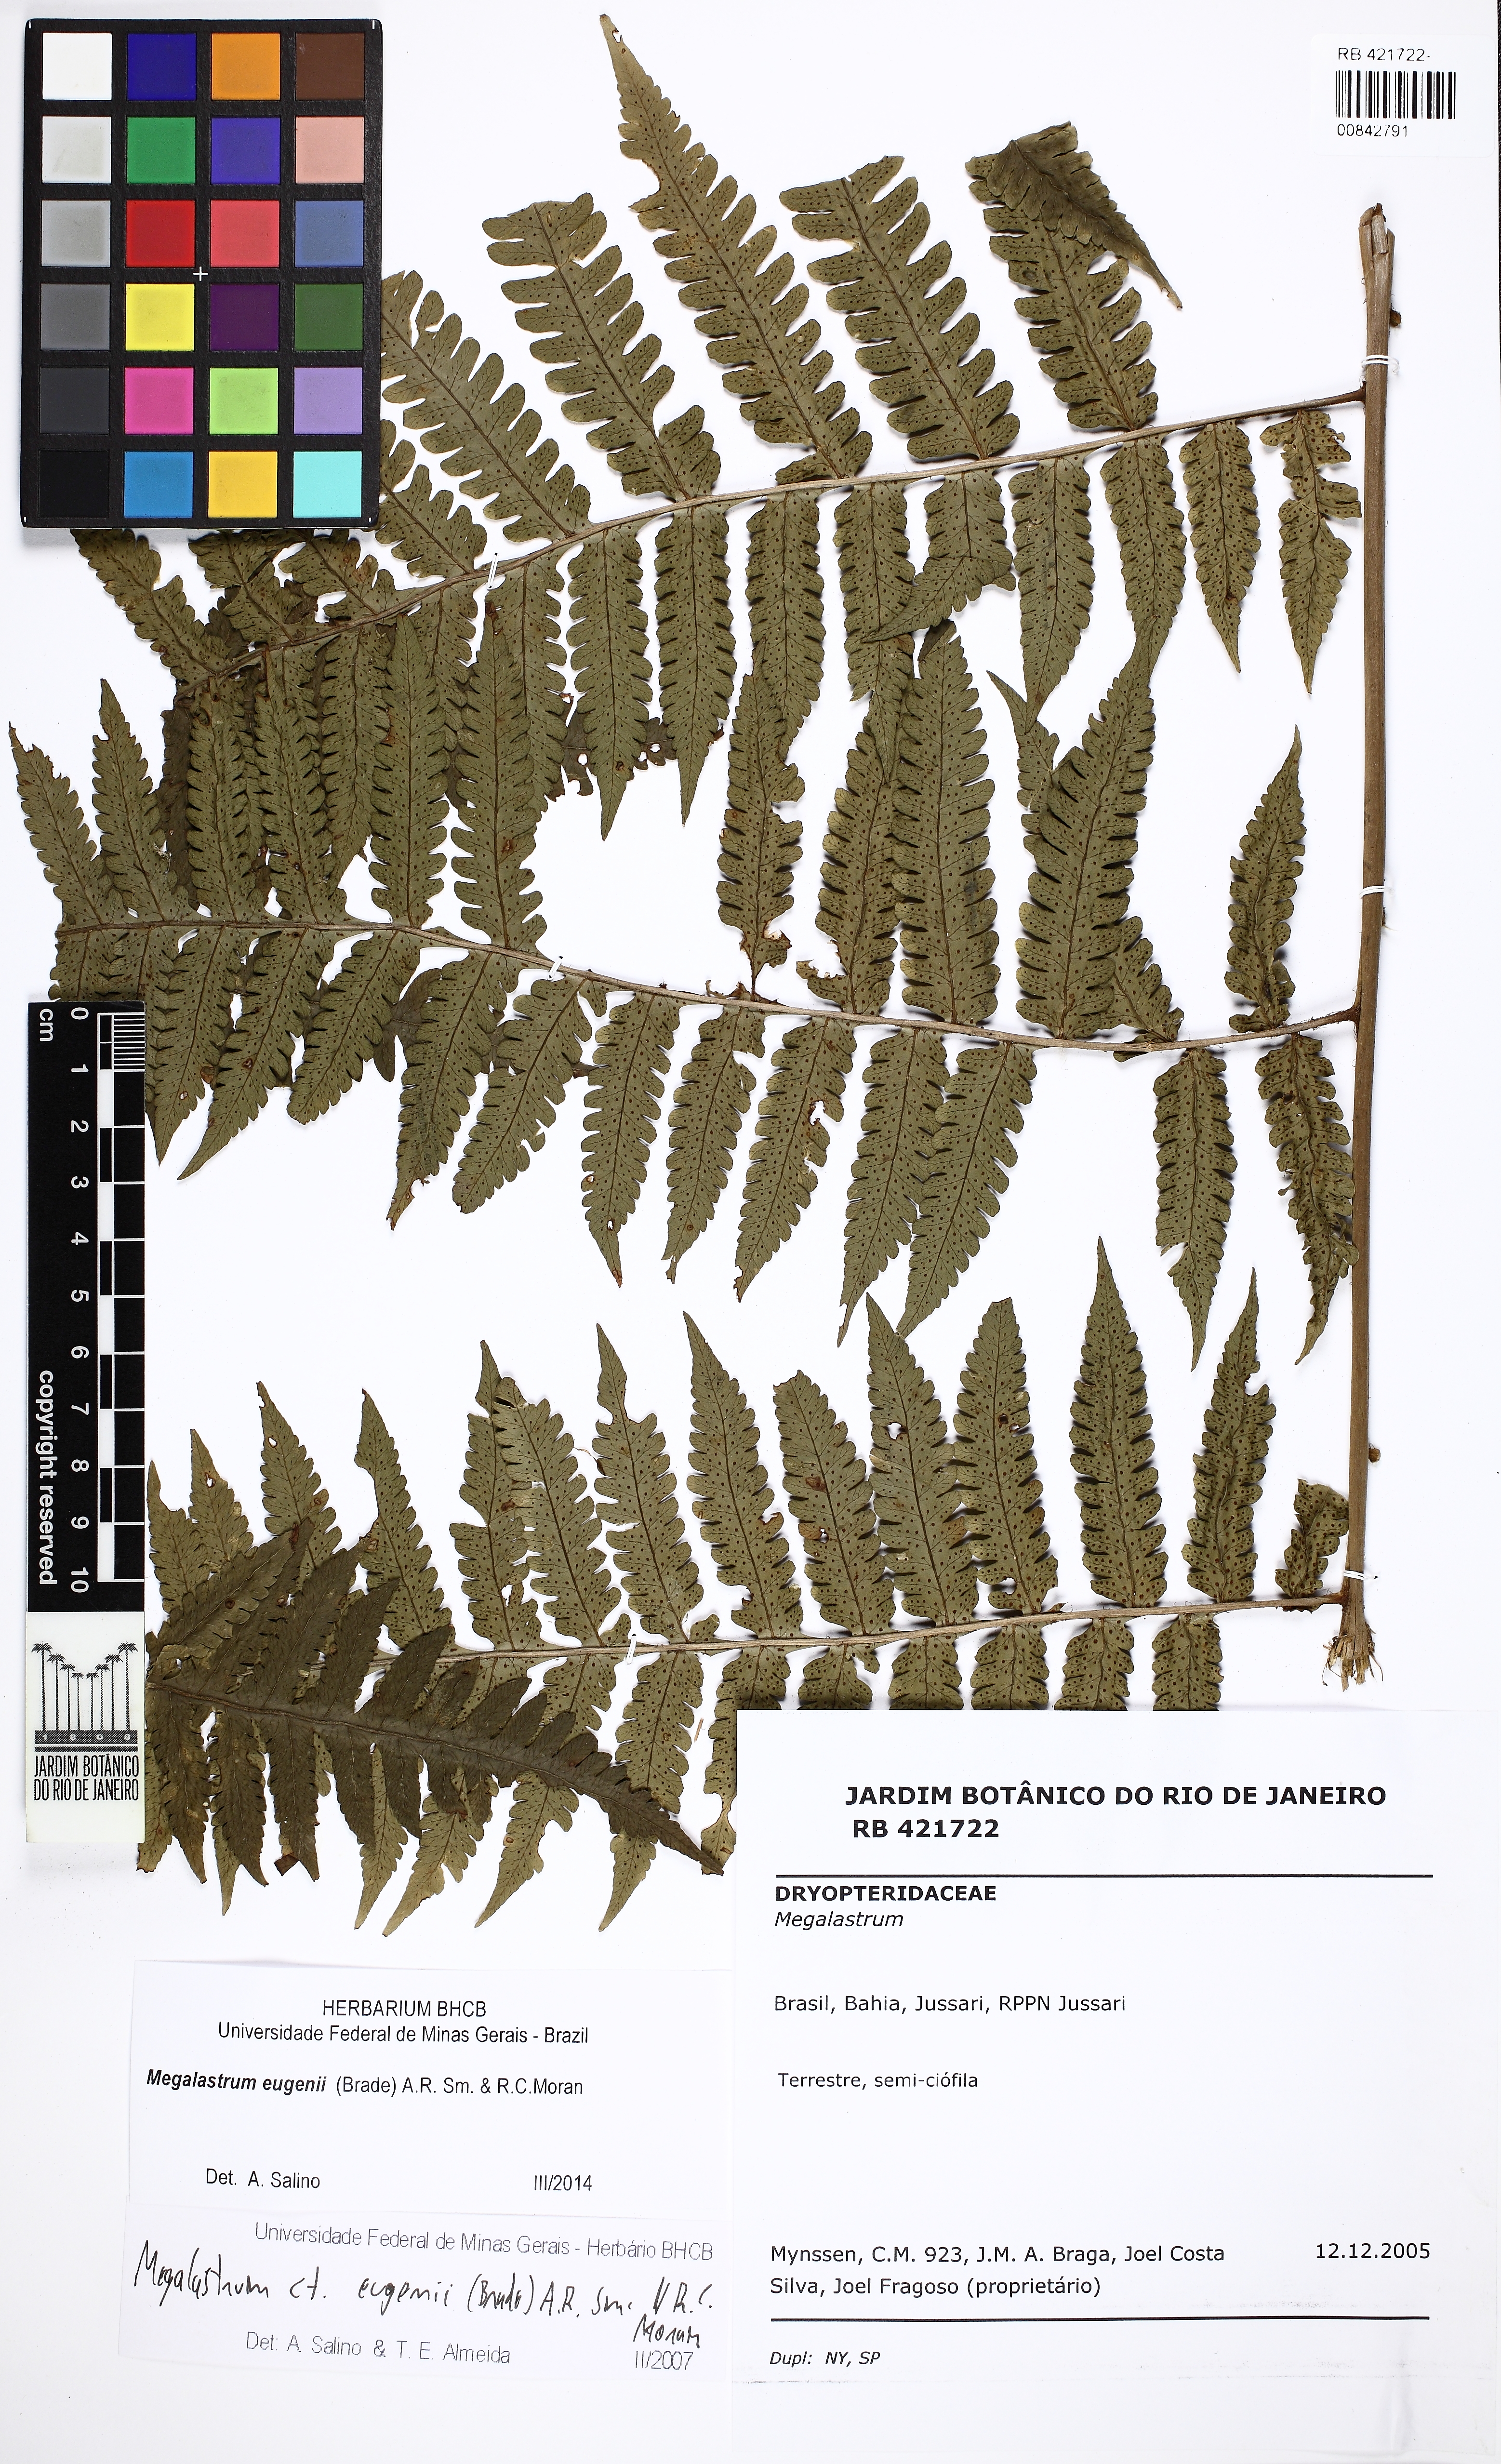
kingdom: Plantae
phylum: Tracheophyta
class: Polypodiopsida
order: Polypodiales
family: Dryopteridaceae
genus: Megalastrum
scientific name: Megalastrum eugenii
